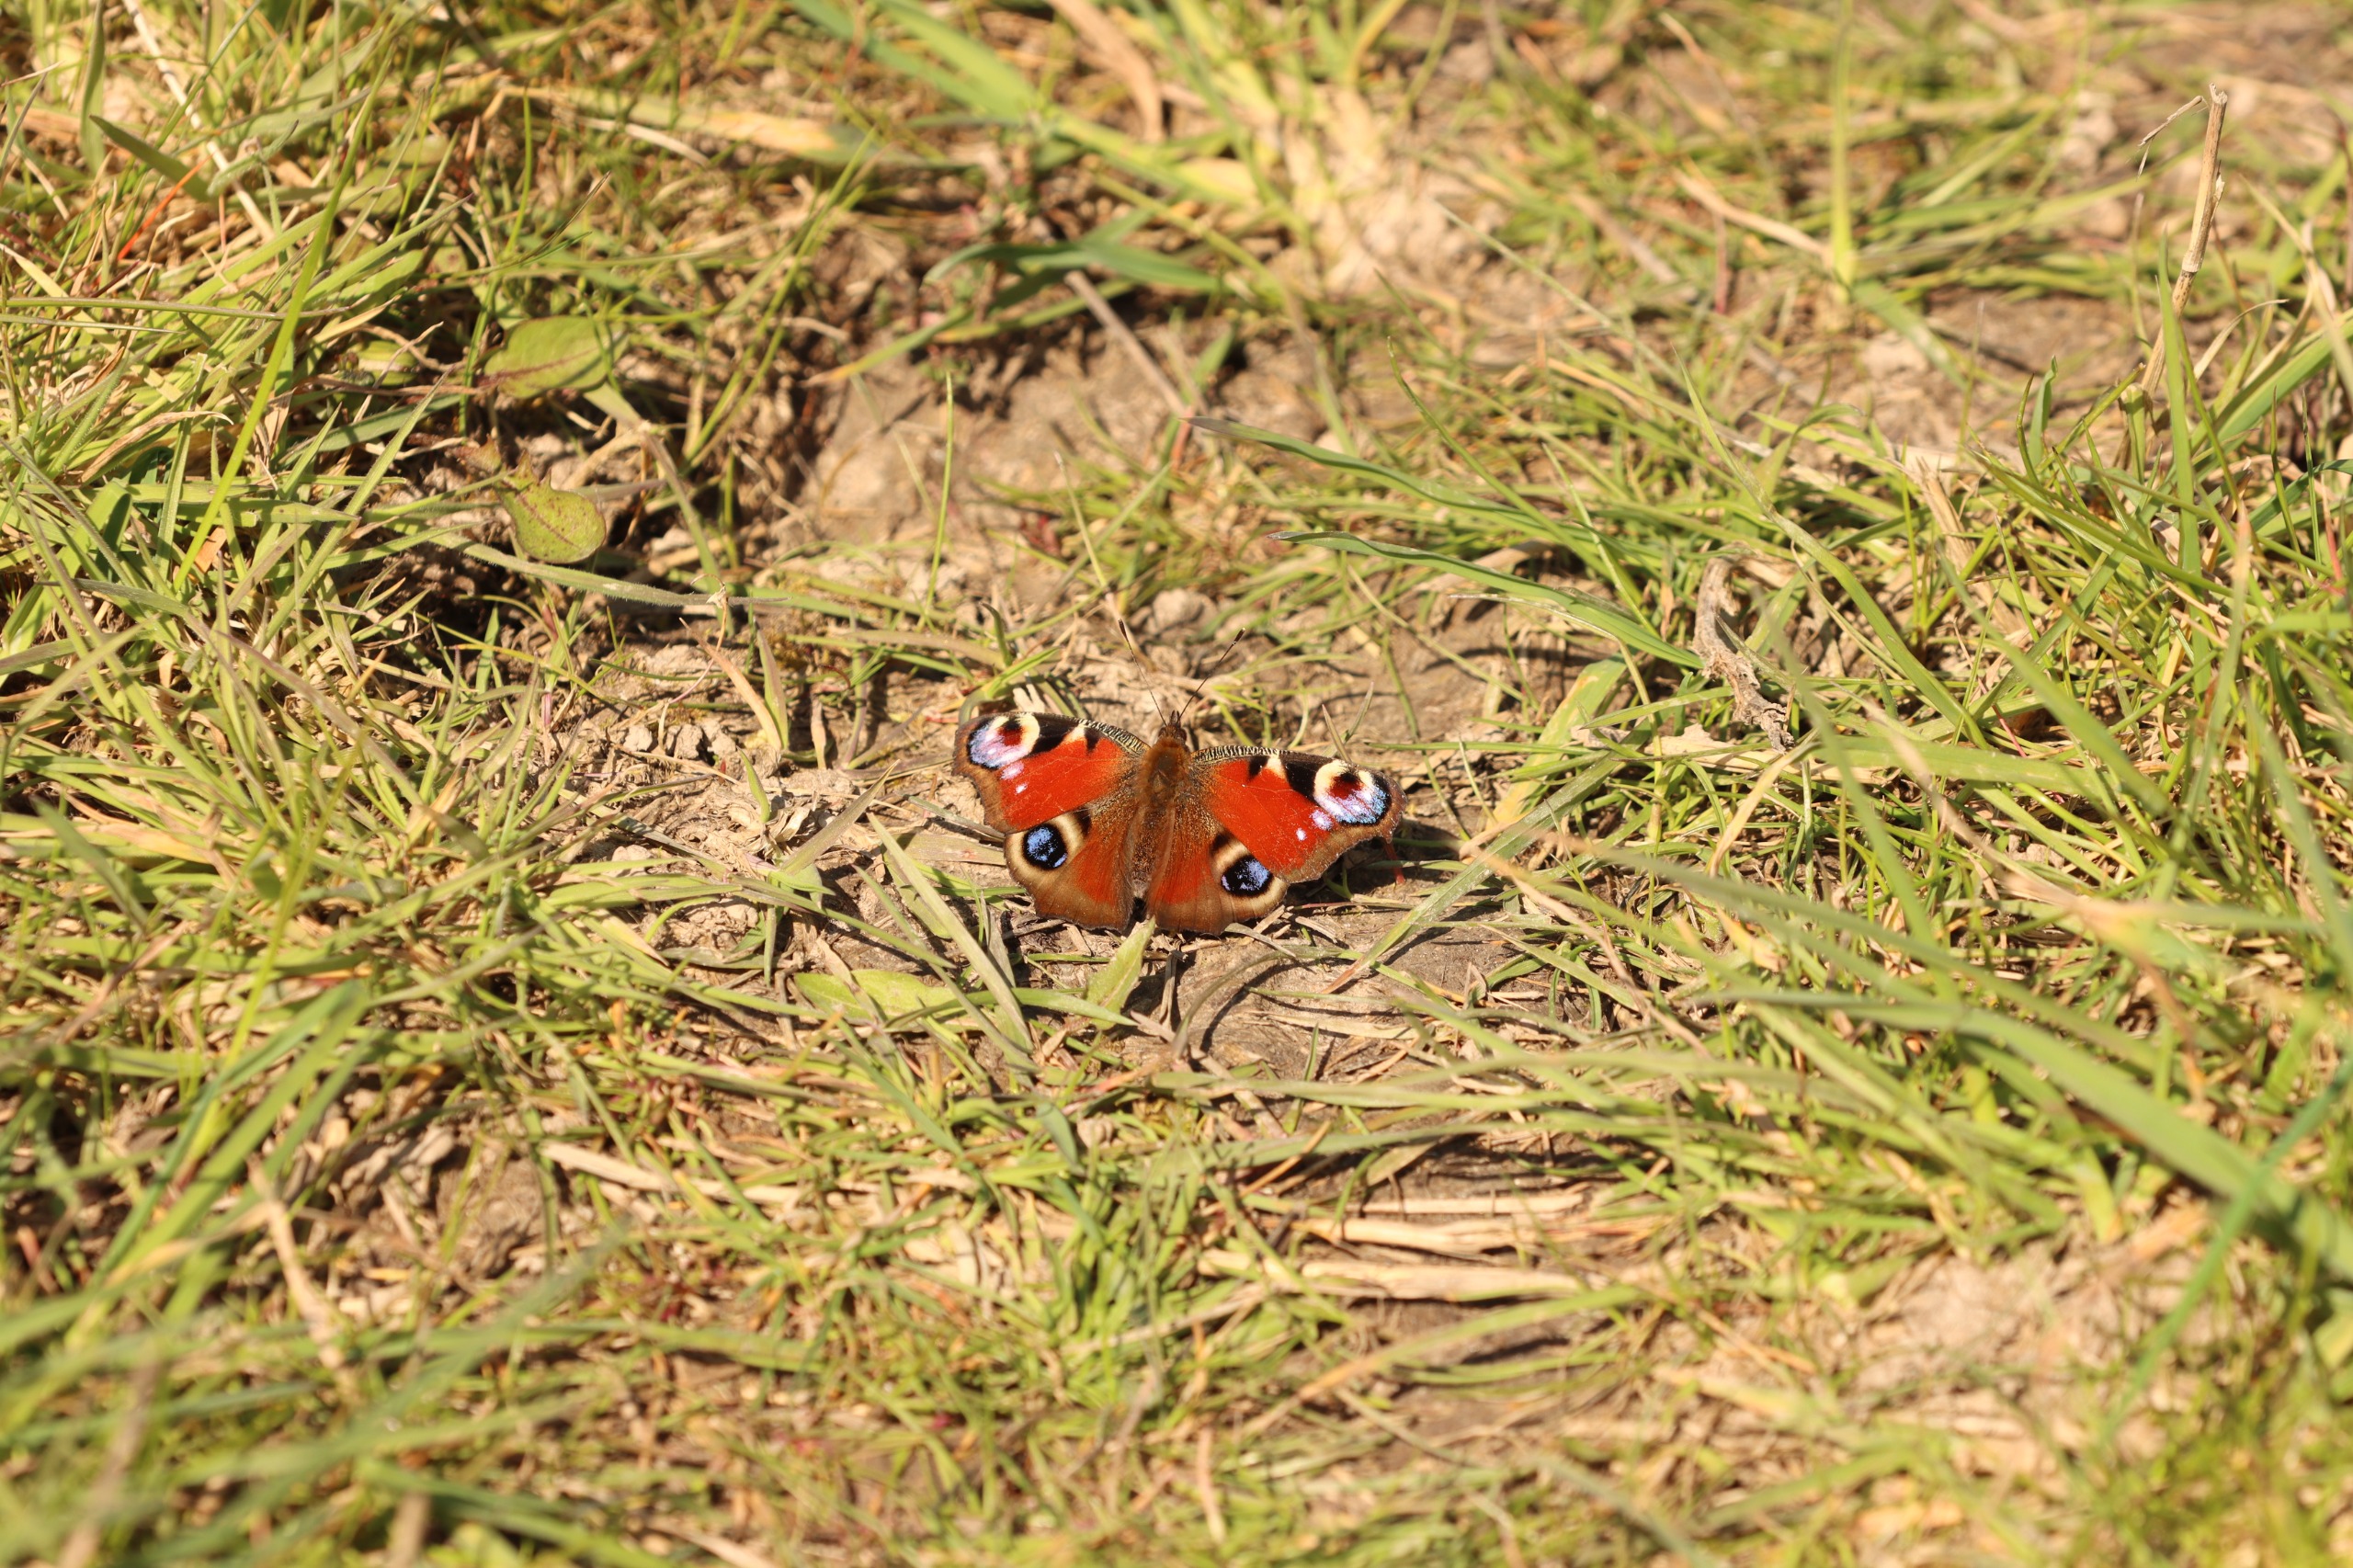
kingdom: Animalia
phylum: Arthropoda
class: Insecta
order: Lepidoptera
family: Nymphalidae
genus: Aglais
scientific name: Aglais io
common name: Dagpåfugleøje
